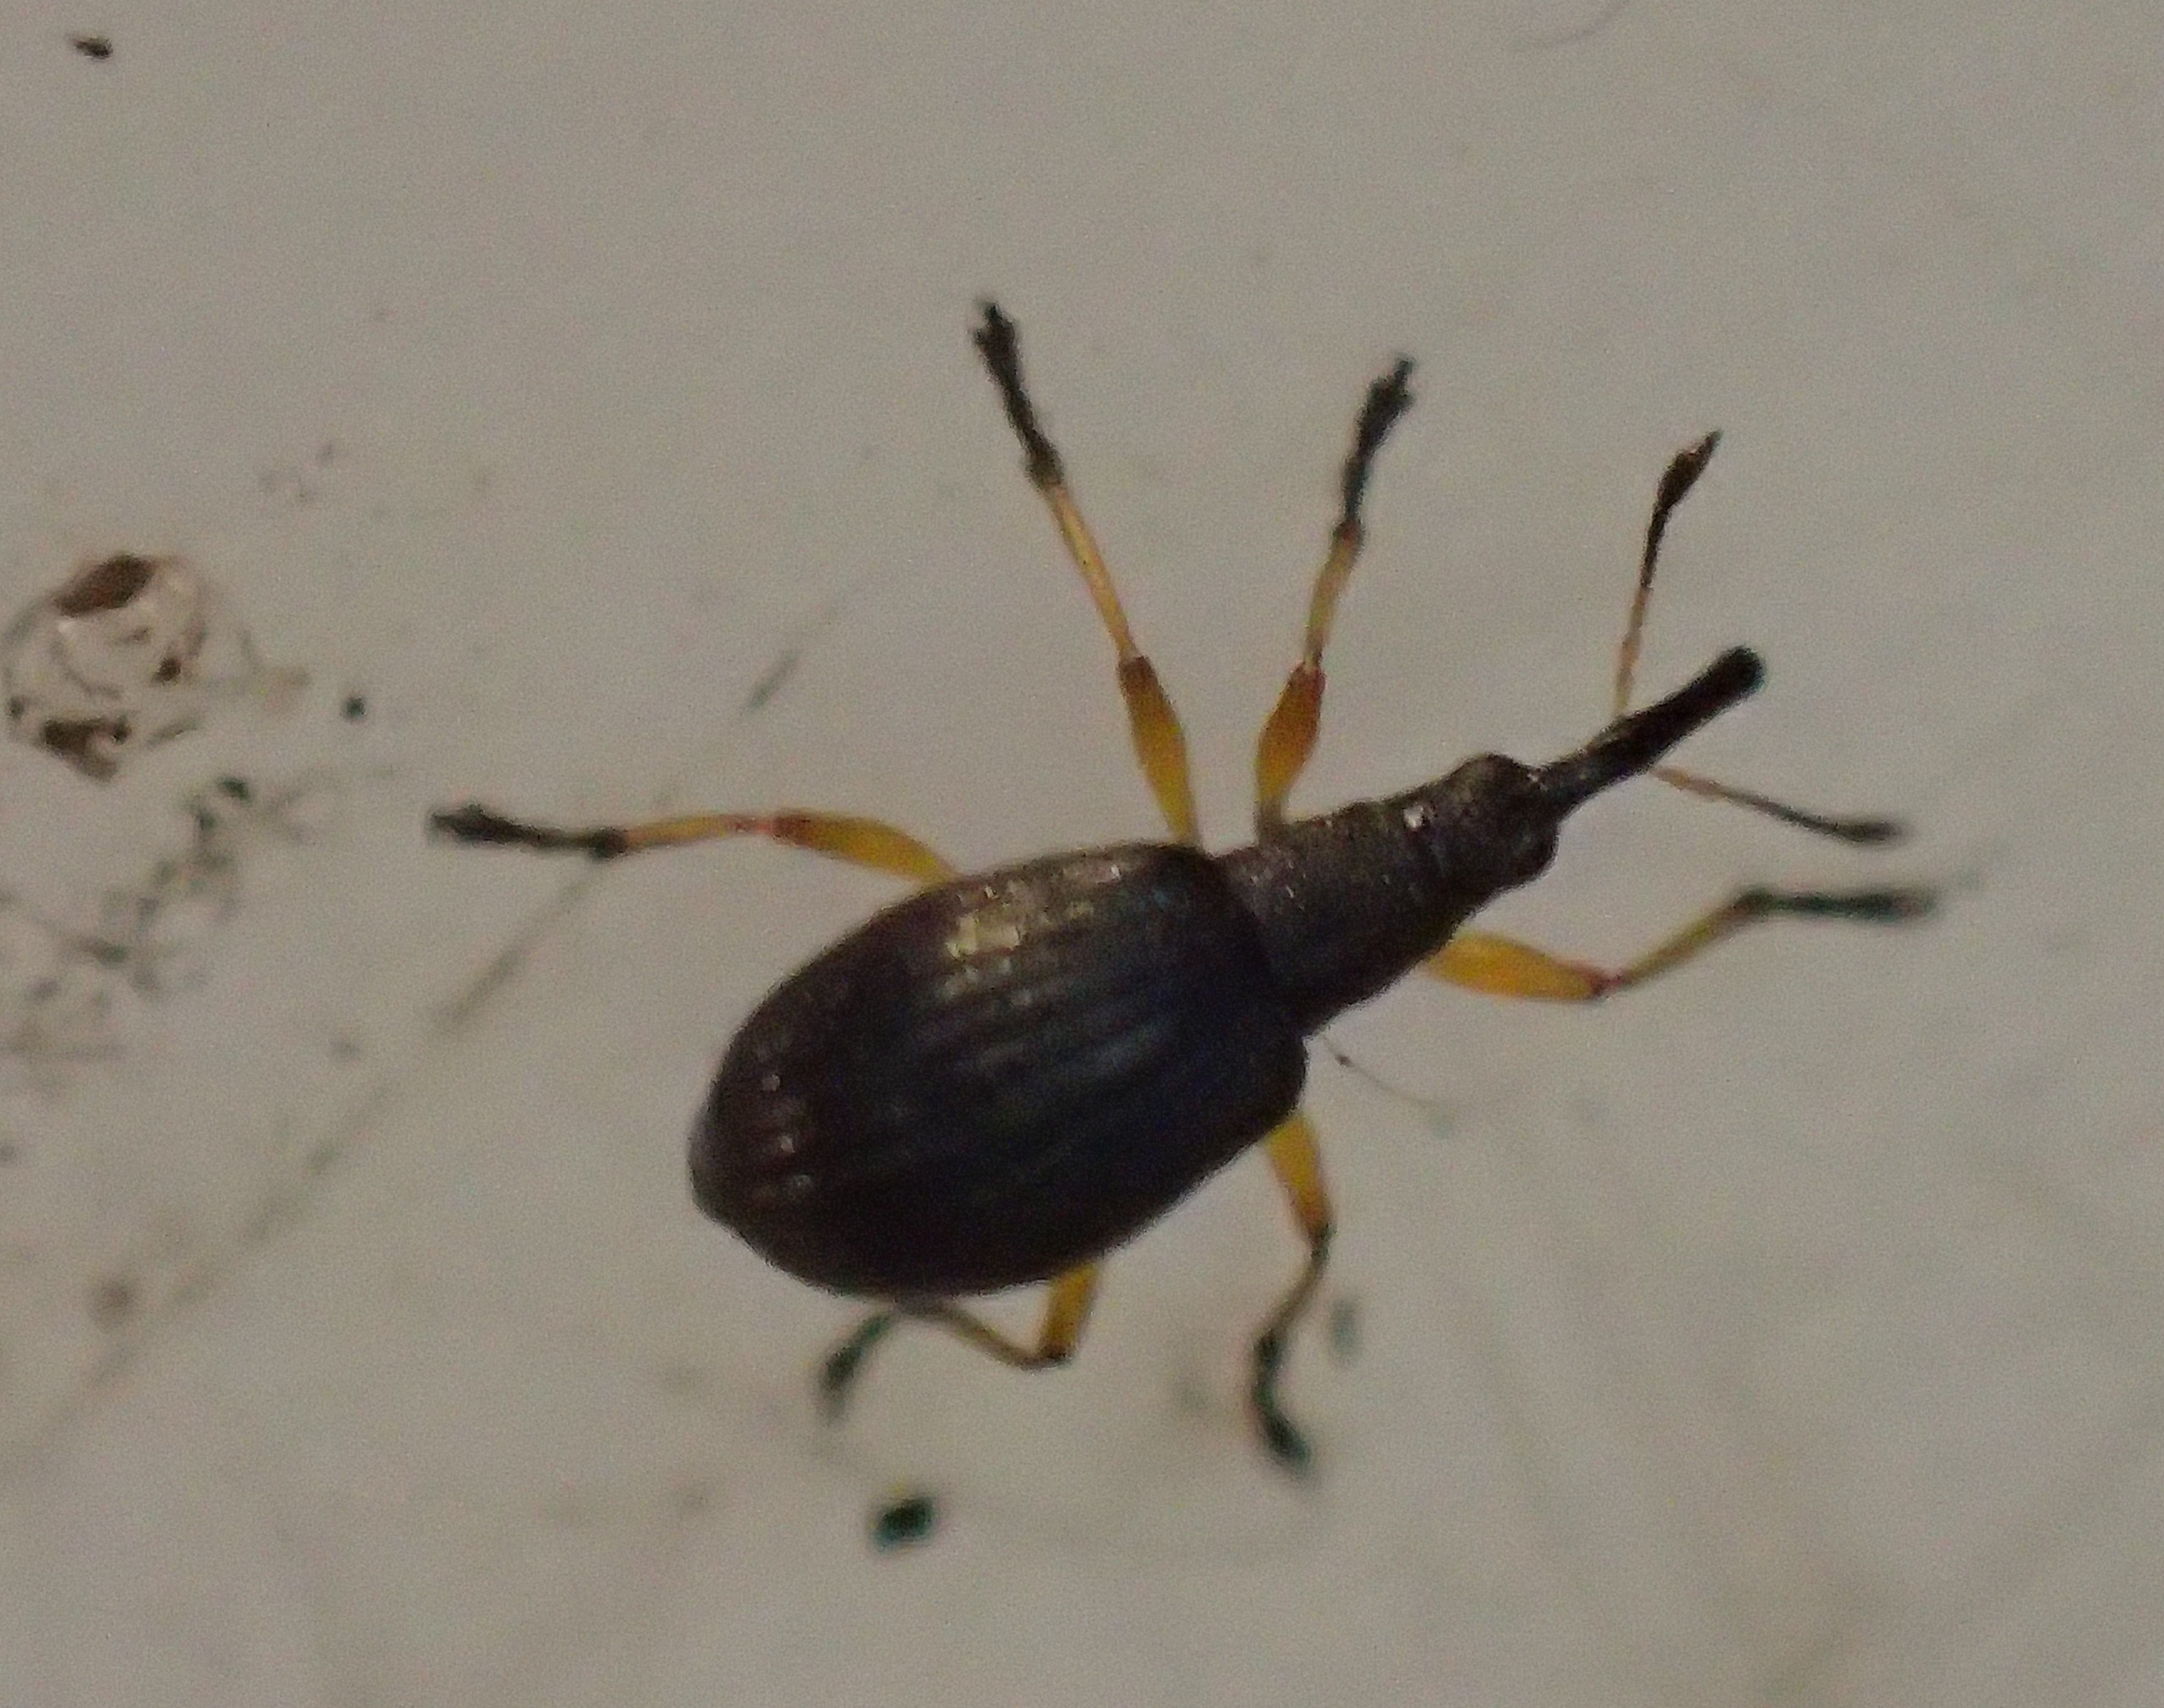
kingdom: Animalia
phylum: Arthropoda
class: Insecta
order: Coleoptera
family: Apionidae
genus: Protapion
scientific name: Protapion fulvipes
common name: Hvidkløversnudebille
